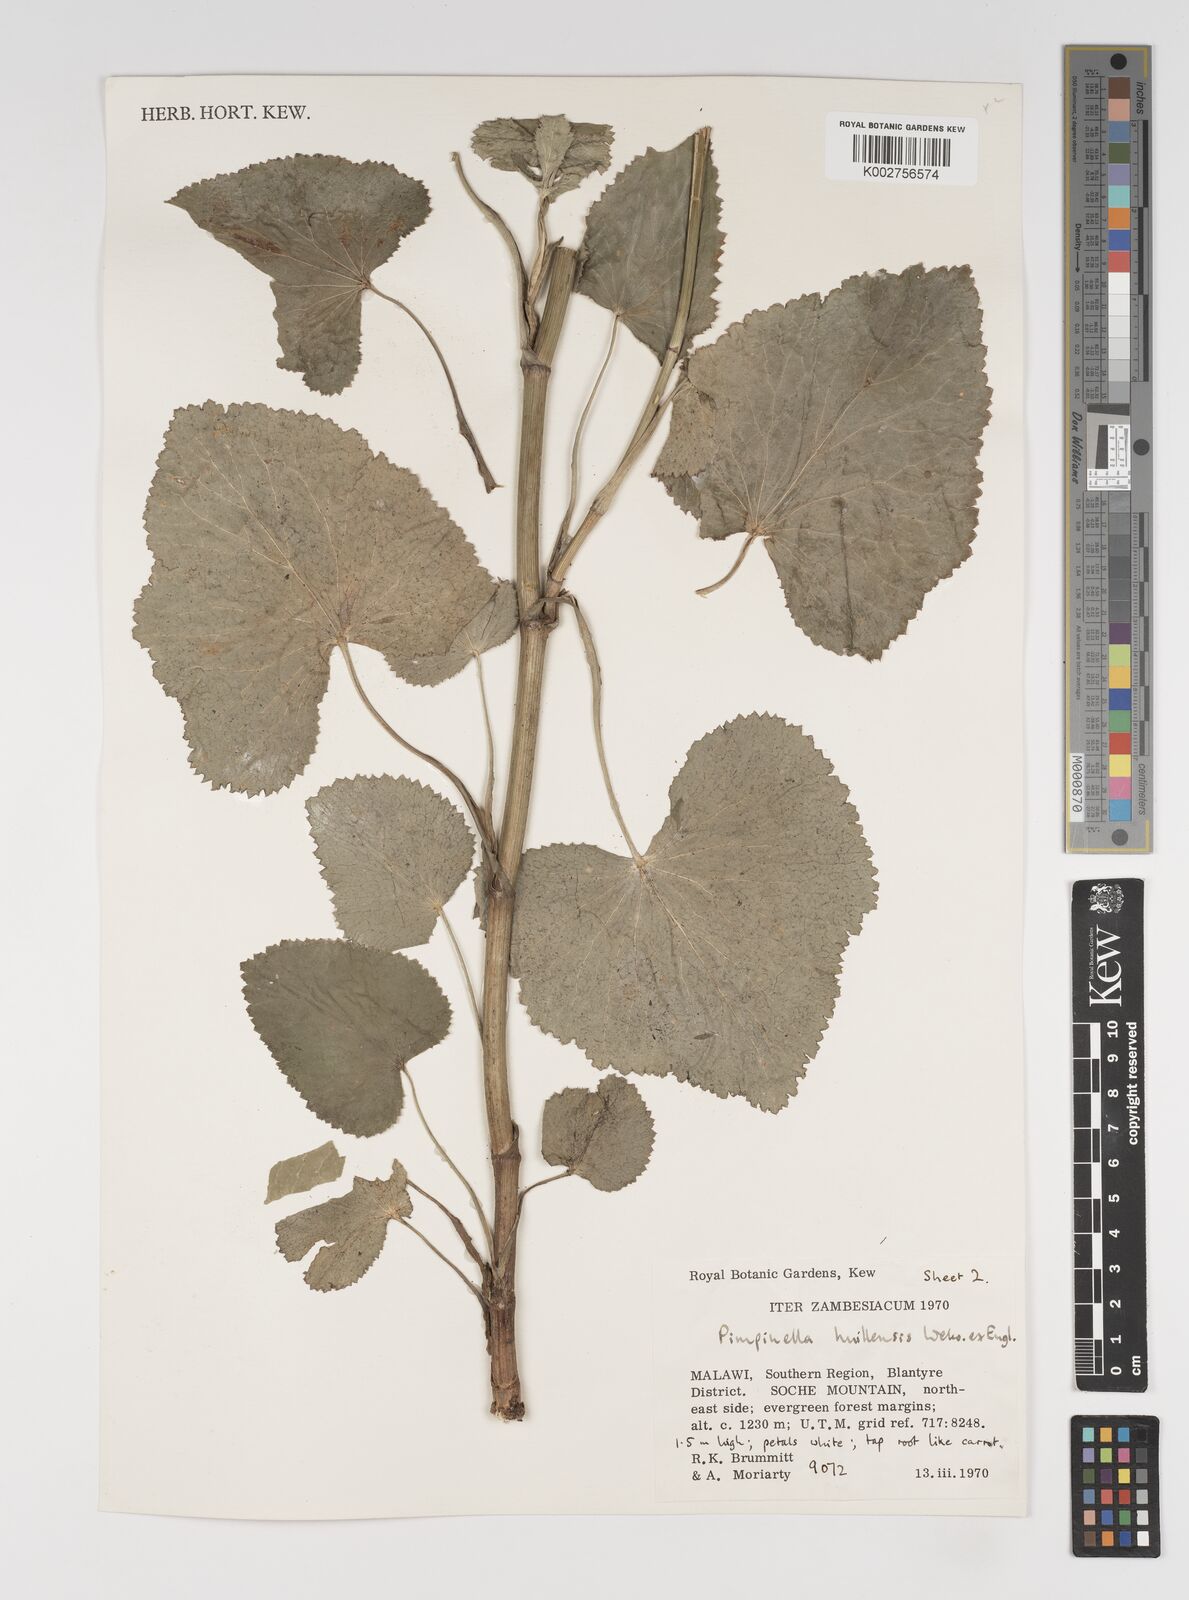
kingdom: Plantae
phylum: Tracheophyta
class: Magnoliopsida
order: Apiales
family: Apiaceae
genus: Pimpinella
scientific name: Pimpinella huillensis
